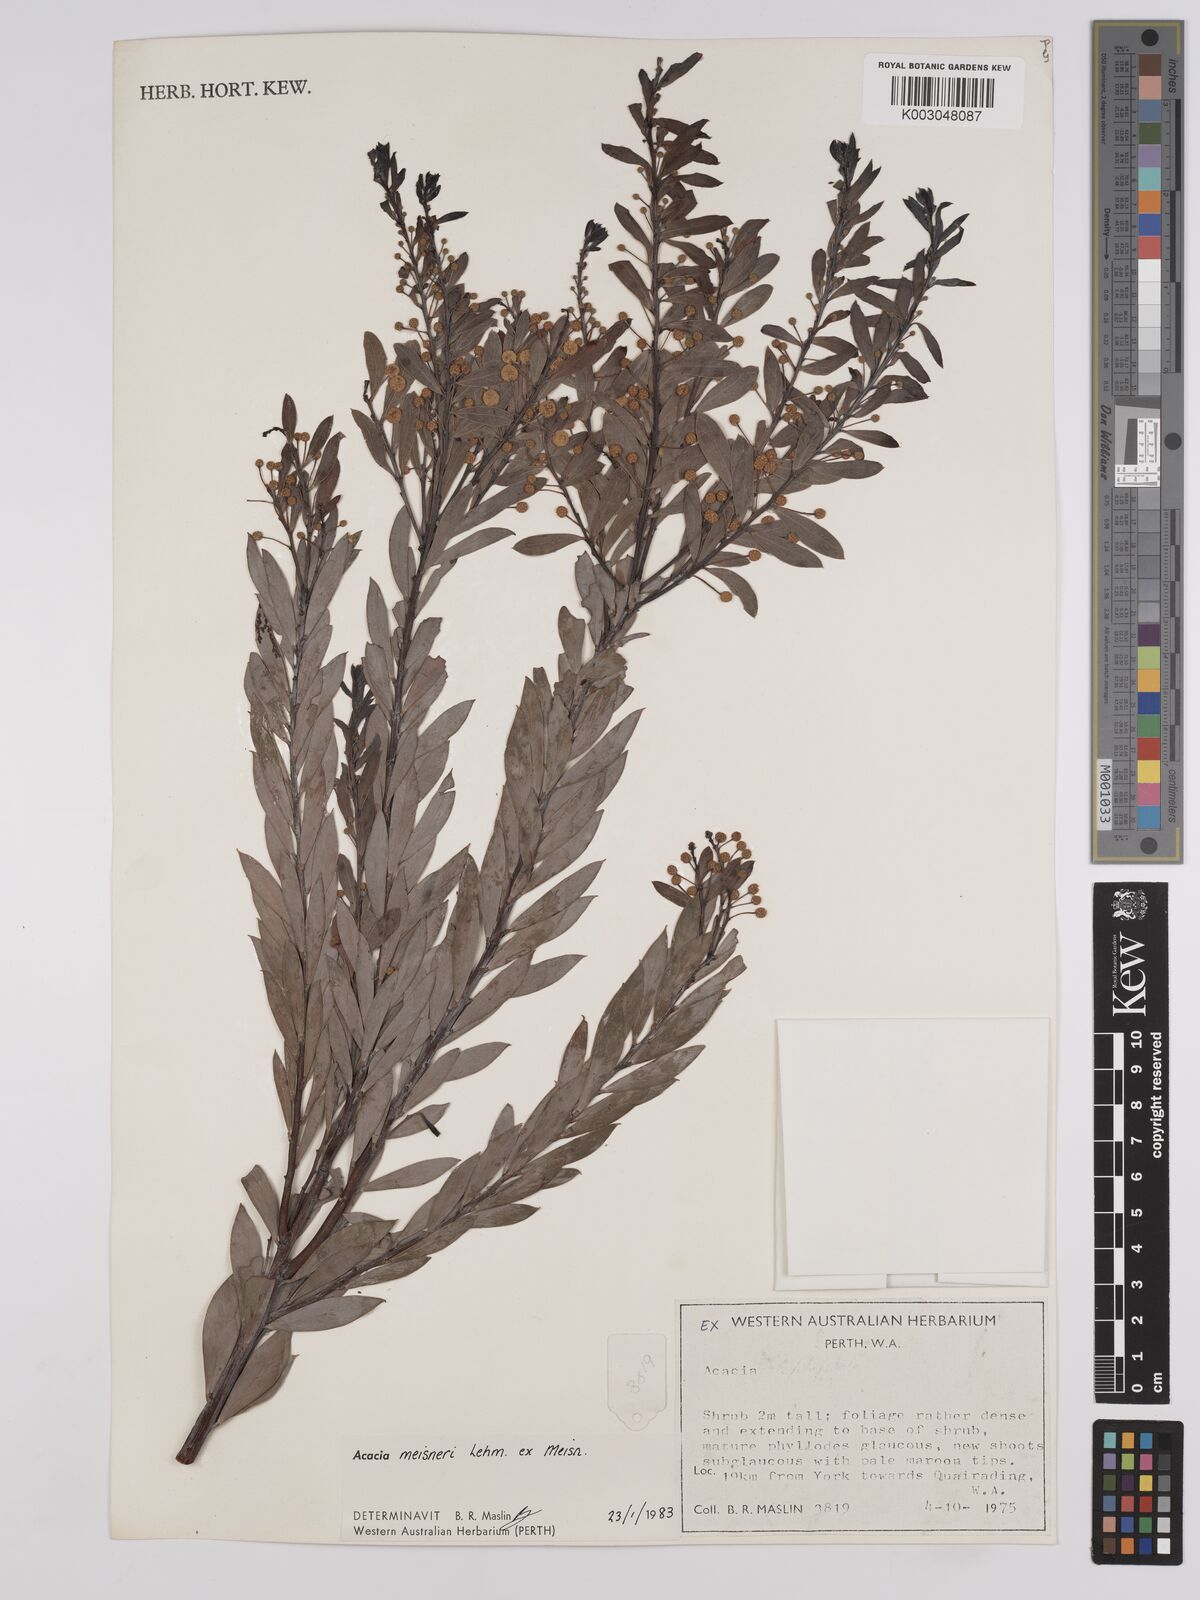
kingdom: Plantae
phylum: Tracheophyta
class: Magnoliopsida
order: Fabales
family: Fabaceae
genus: Acacia
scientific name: Acacia meisneri
